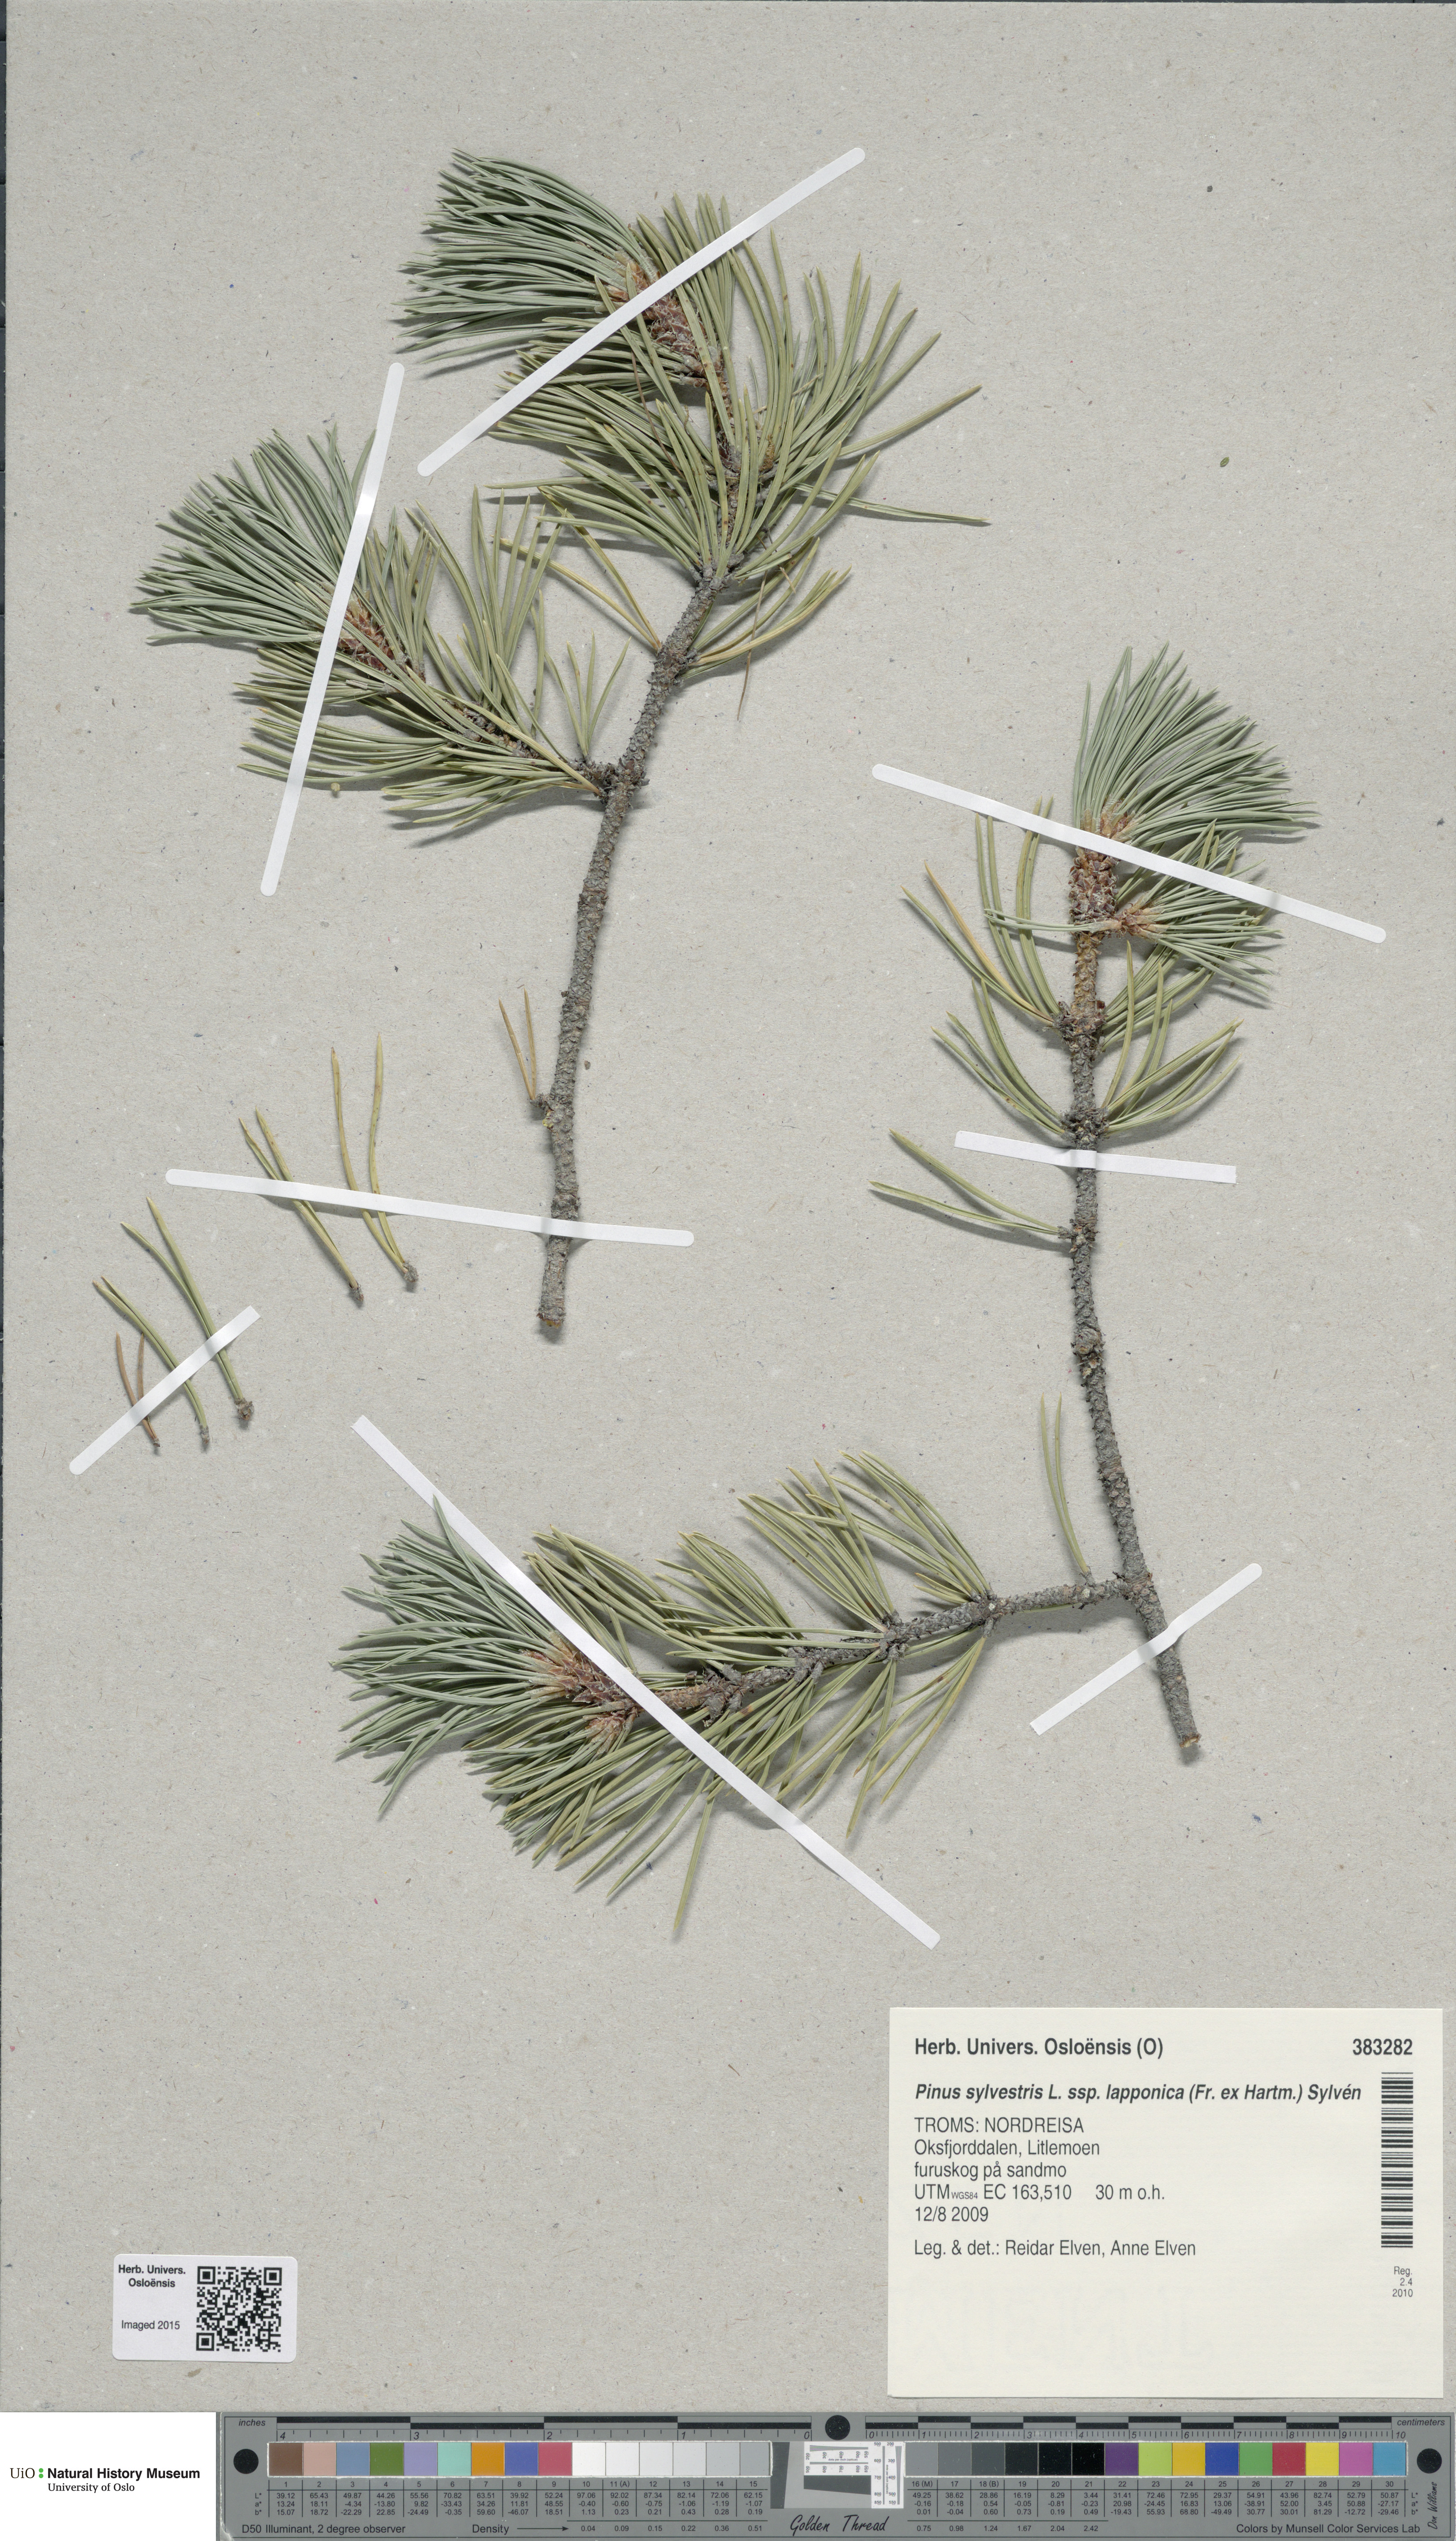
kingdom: Plantae
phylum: Tracheophyta
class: Pinopsida
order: Pinales
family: Pinaceae
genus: Pinus
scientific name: Pinus sylvestris
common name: Scots pine
